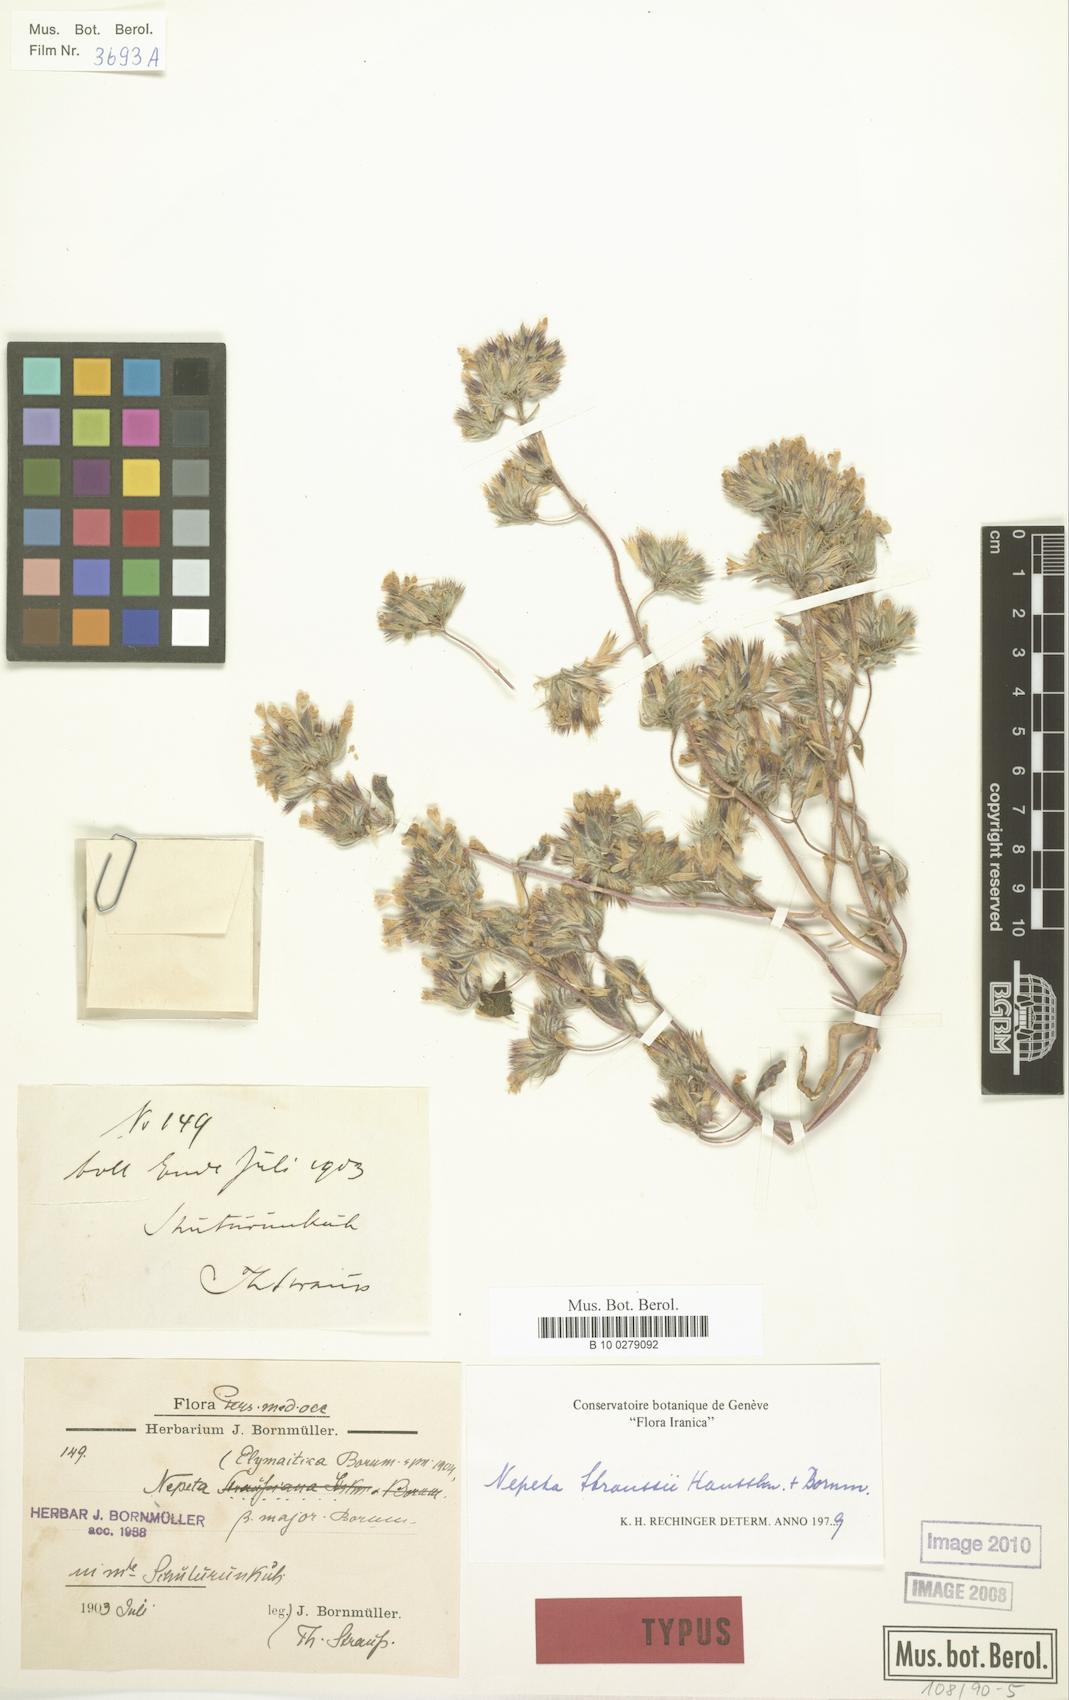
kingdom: Plantae
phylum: Tracheophyta
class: Magnoliopsida
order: Lamiales
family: Lamiaceae
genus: Nepeta
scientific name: Nepeta straussii
